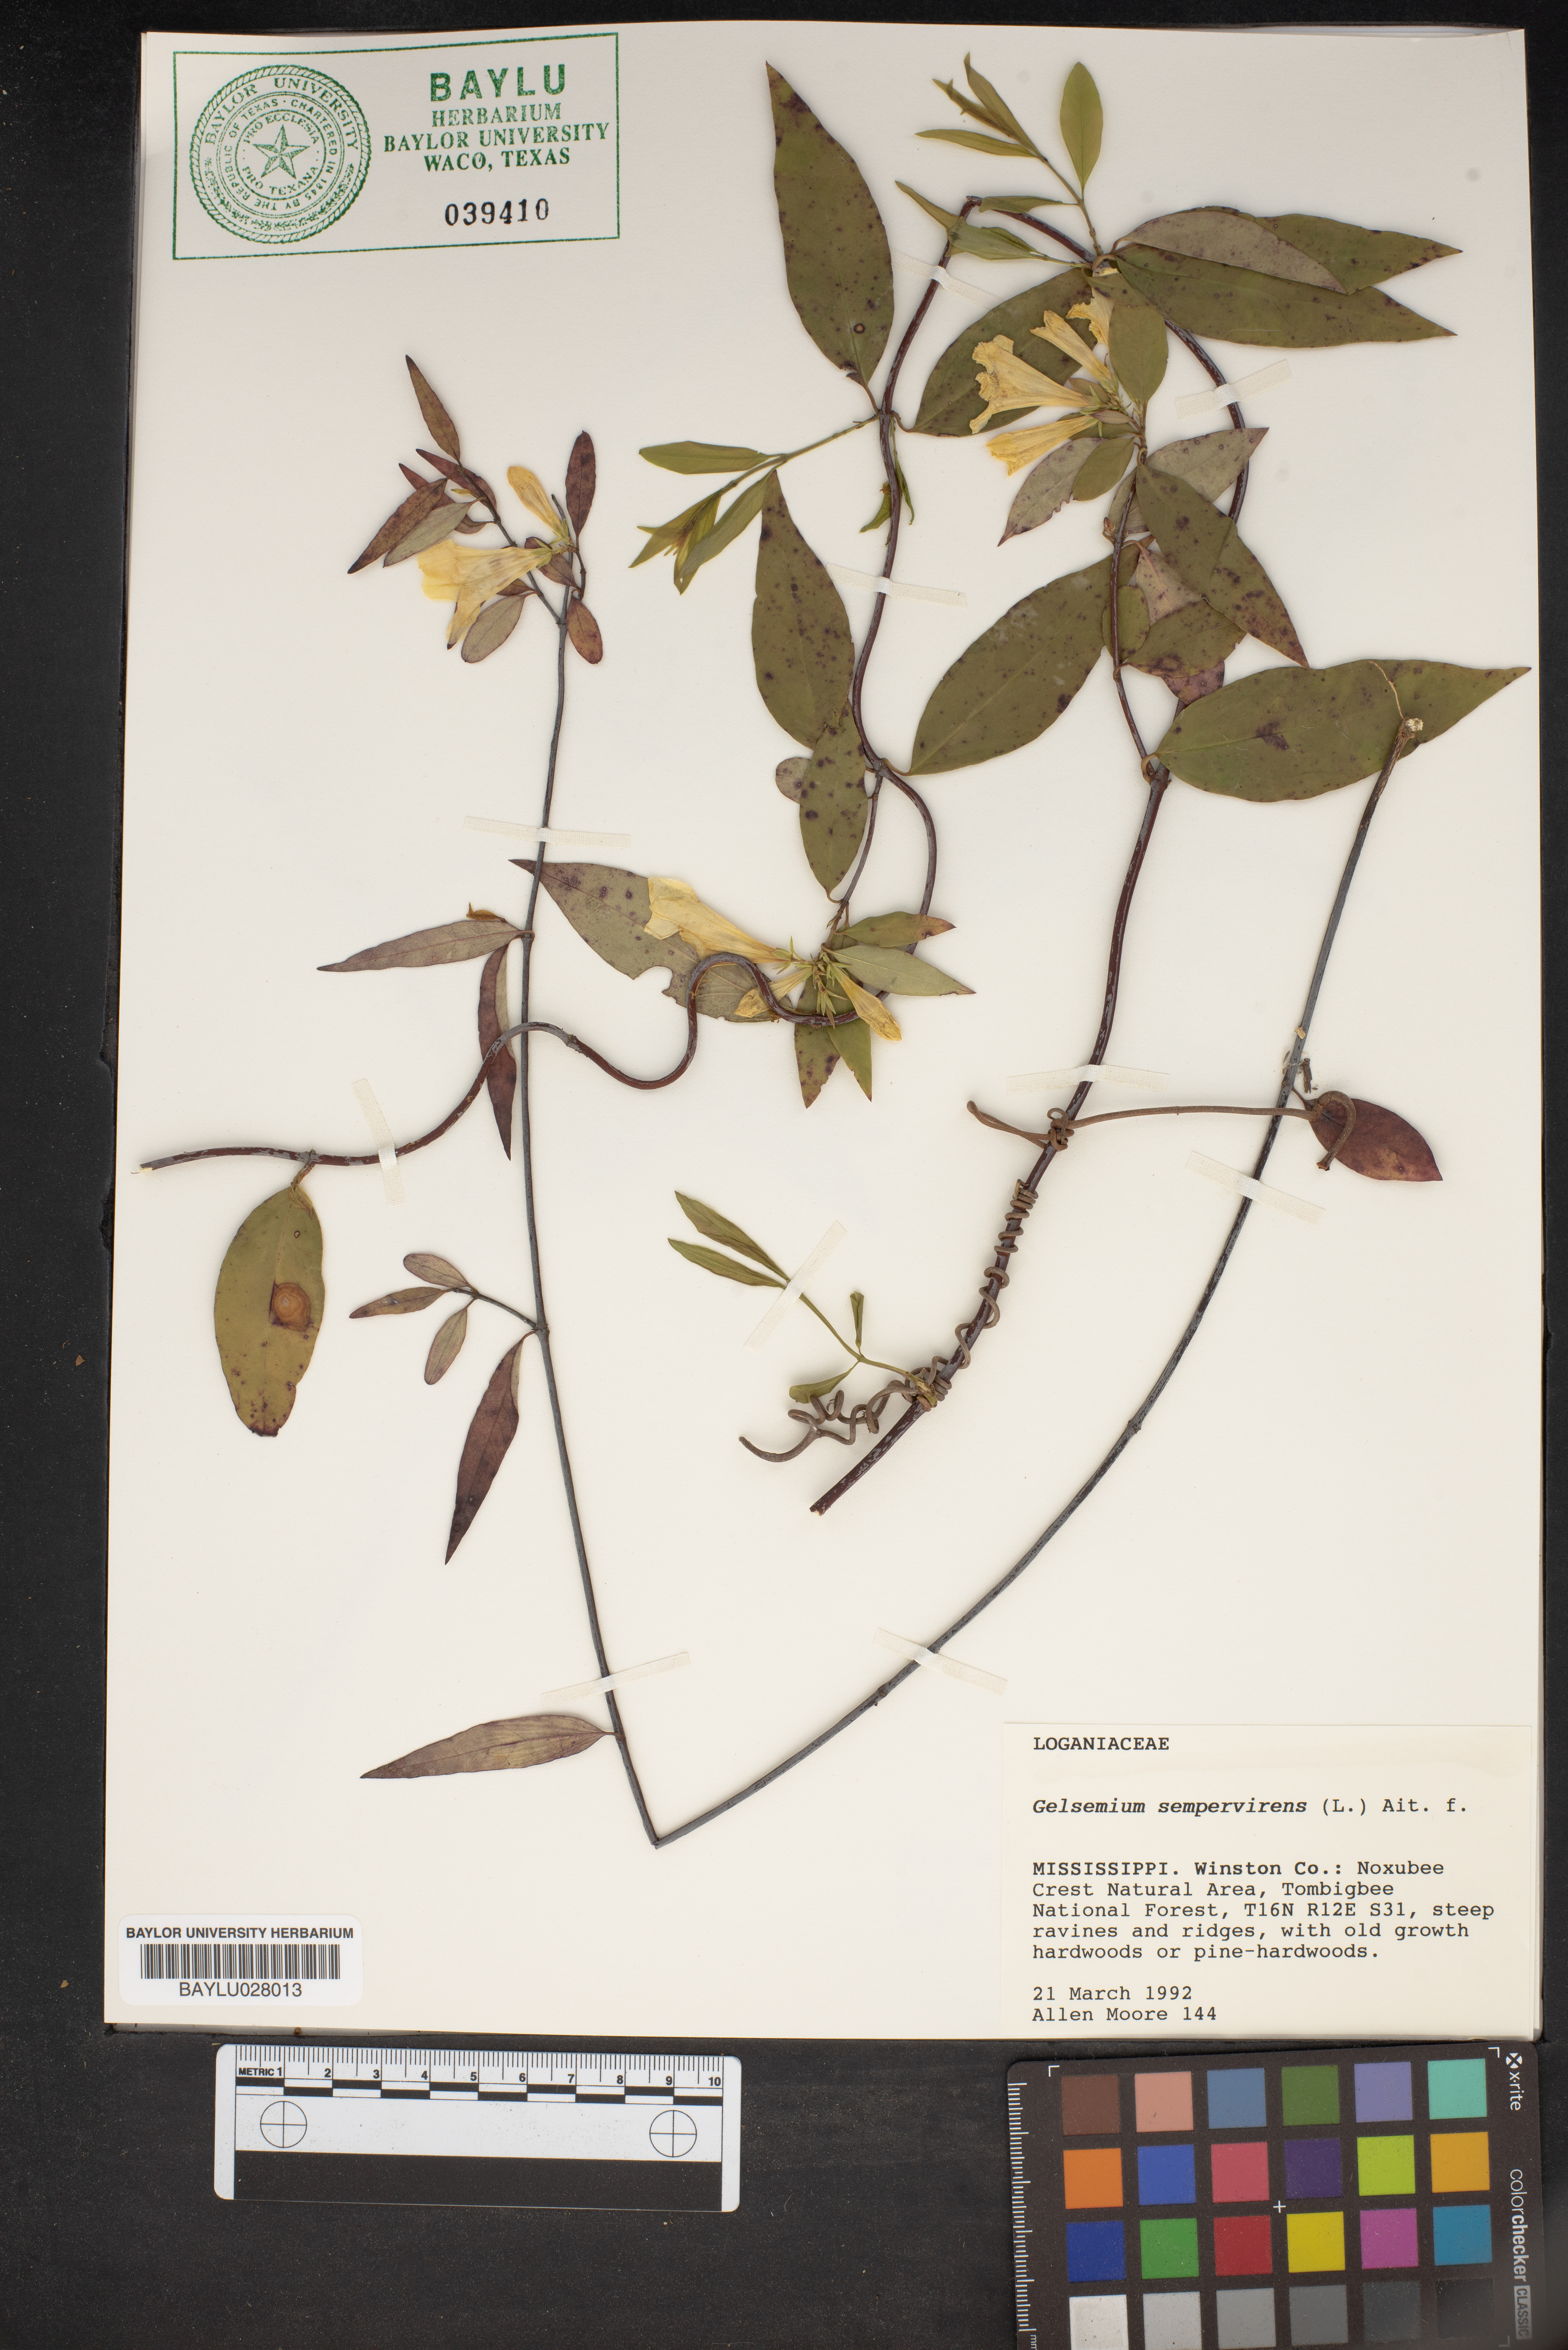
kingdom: Plantae
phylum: Tracheophyta
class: Magnoliopsida
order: Gentianales
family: Gelsemiaceae
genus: Gelsemium
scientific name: Gelsemium sempervirens
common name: Carolina-jasmine
